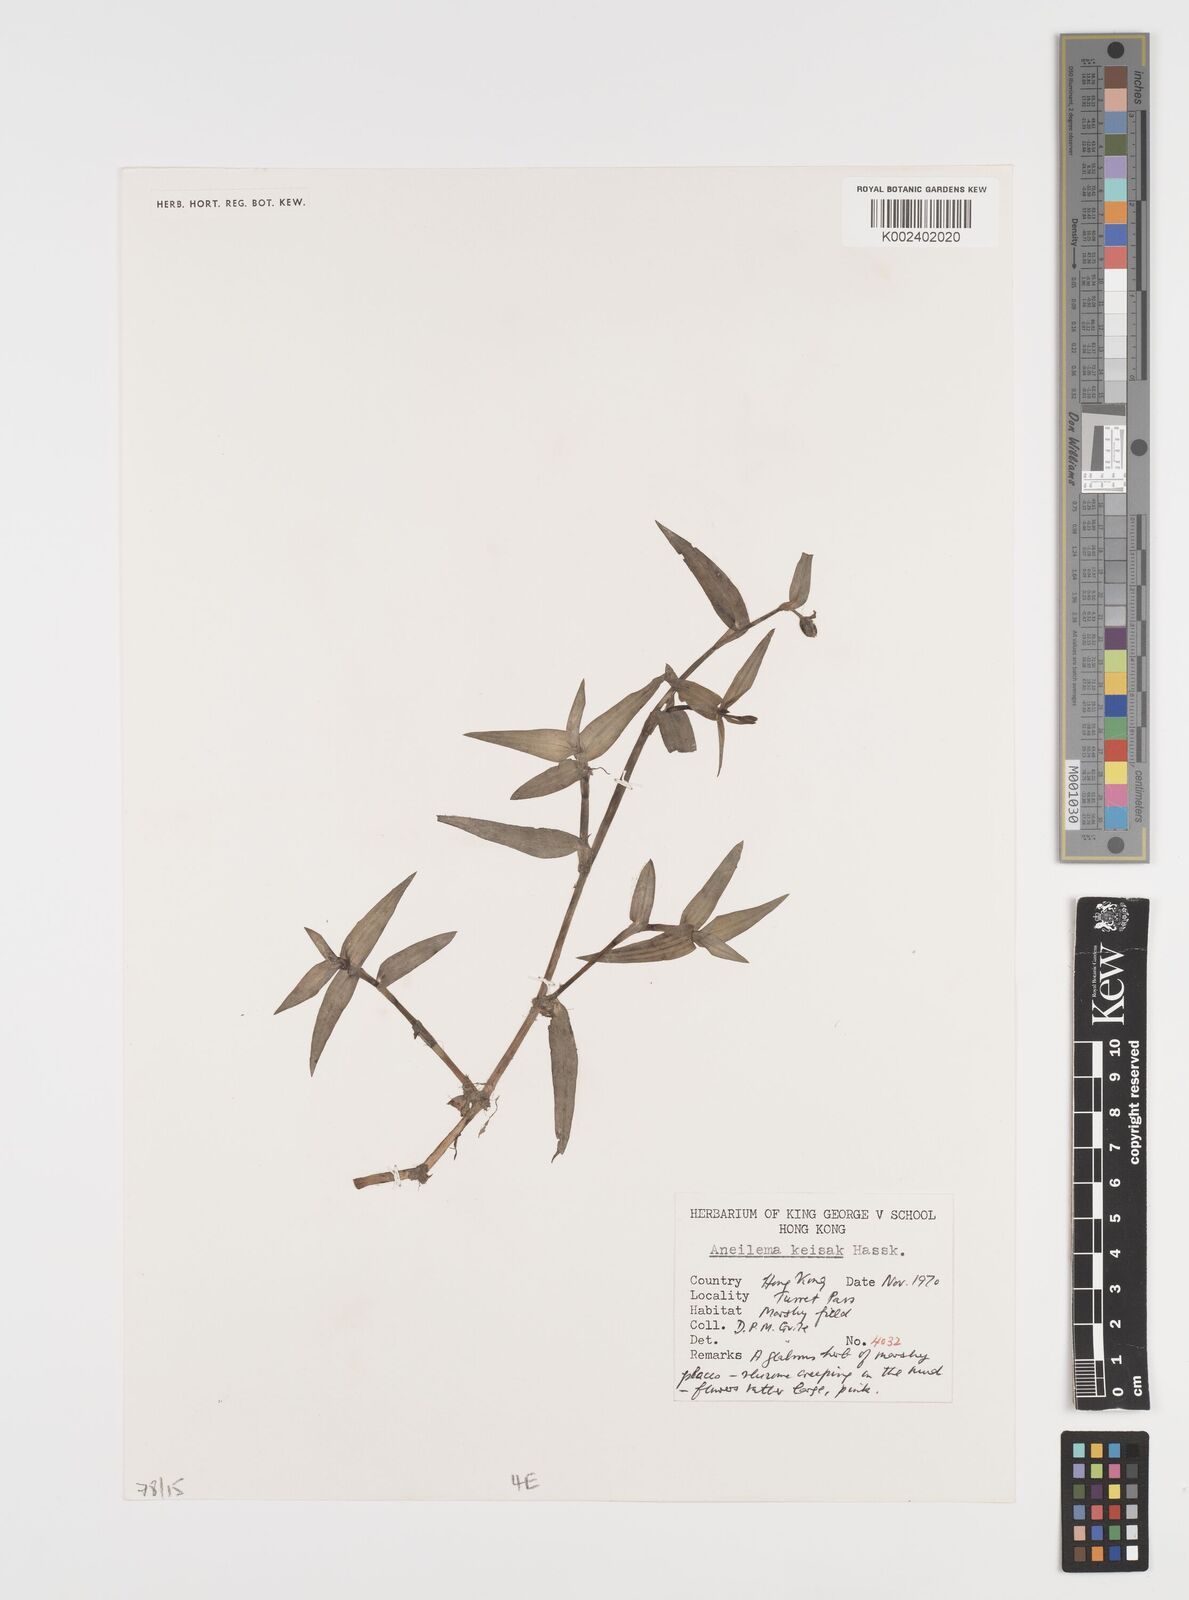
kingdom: Plantae
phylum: Tracheophyta
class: Liliopsida
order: Commelinales
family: Commelinaceae
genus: Murdannia
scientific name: Murdannia keisak
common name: Wartremoving herb
